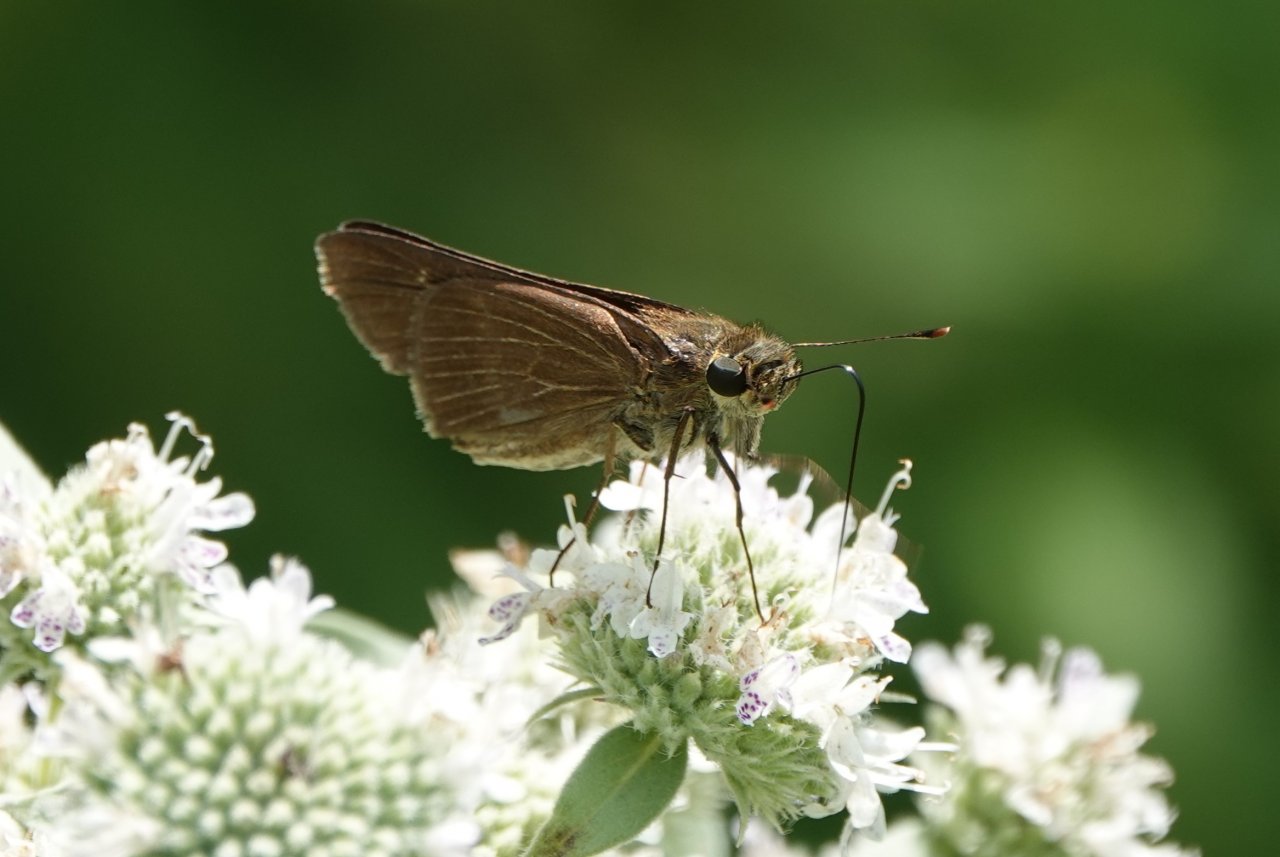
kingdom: Animalia
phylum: Arthropoda
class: Insecta
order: Lepidoptera
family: Hesperiidae
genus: Panoquina
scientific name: Panoquina ocola
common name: Ocola Skipper
